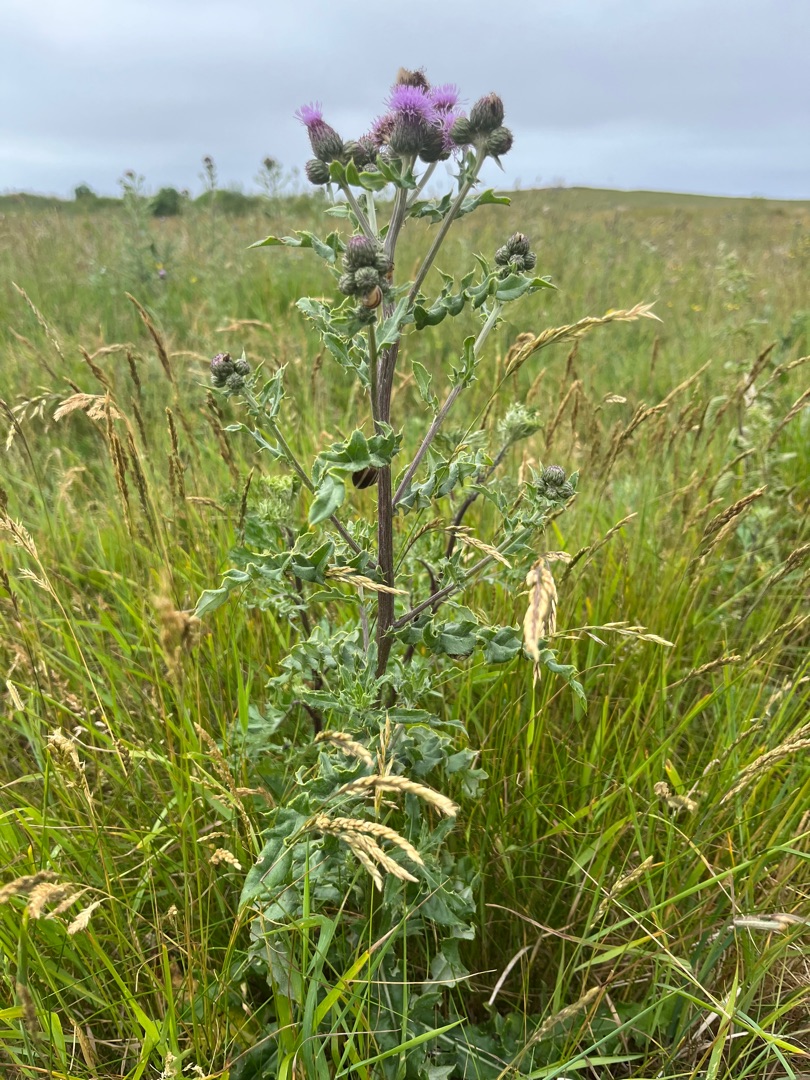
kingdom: Plantae
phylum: Tracheophyta
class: Magnoliopsida
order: Asterales
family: Asteraceae
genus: Cirsium
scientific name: Cirsium arvense
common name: Ager-tidsel
